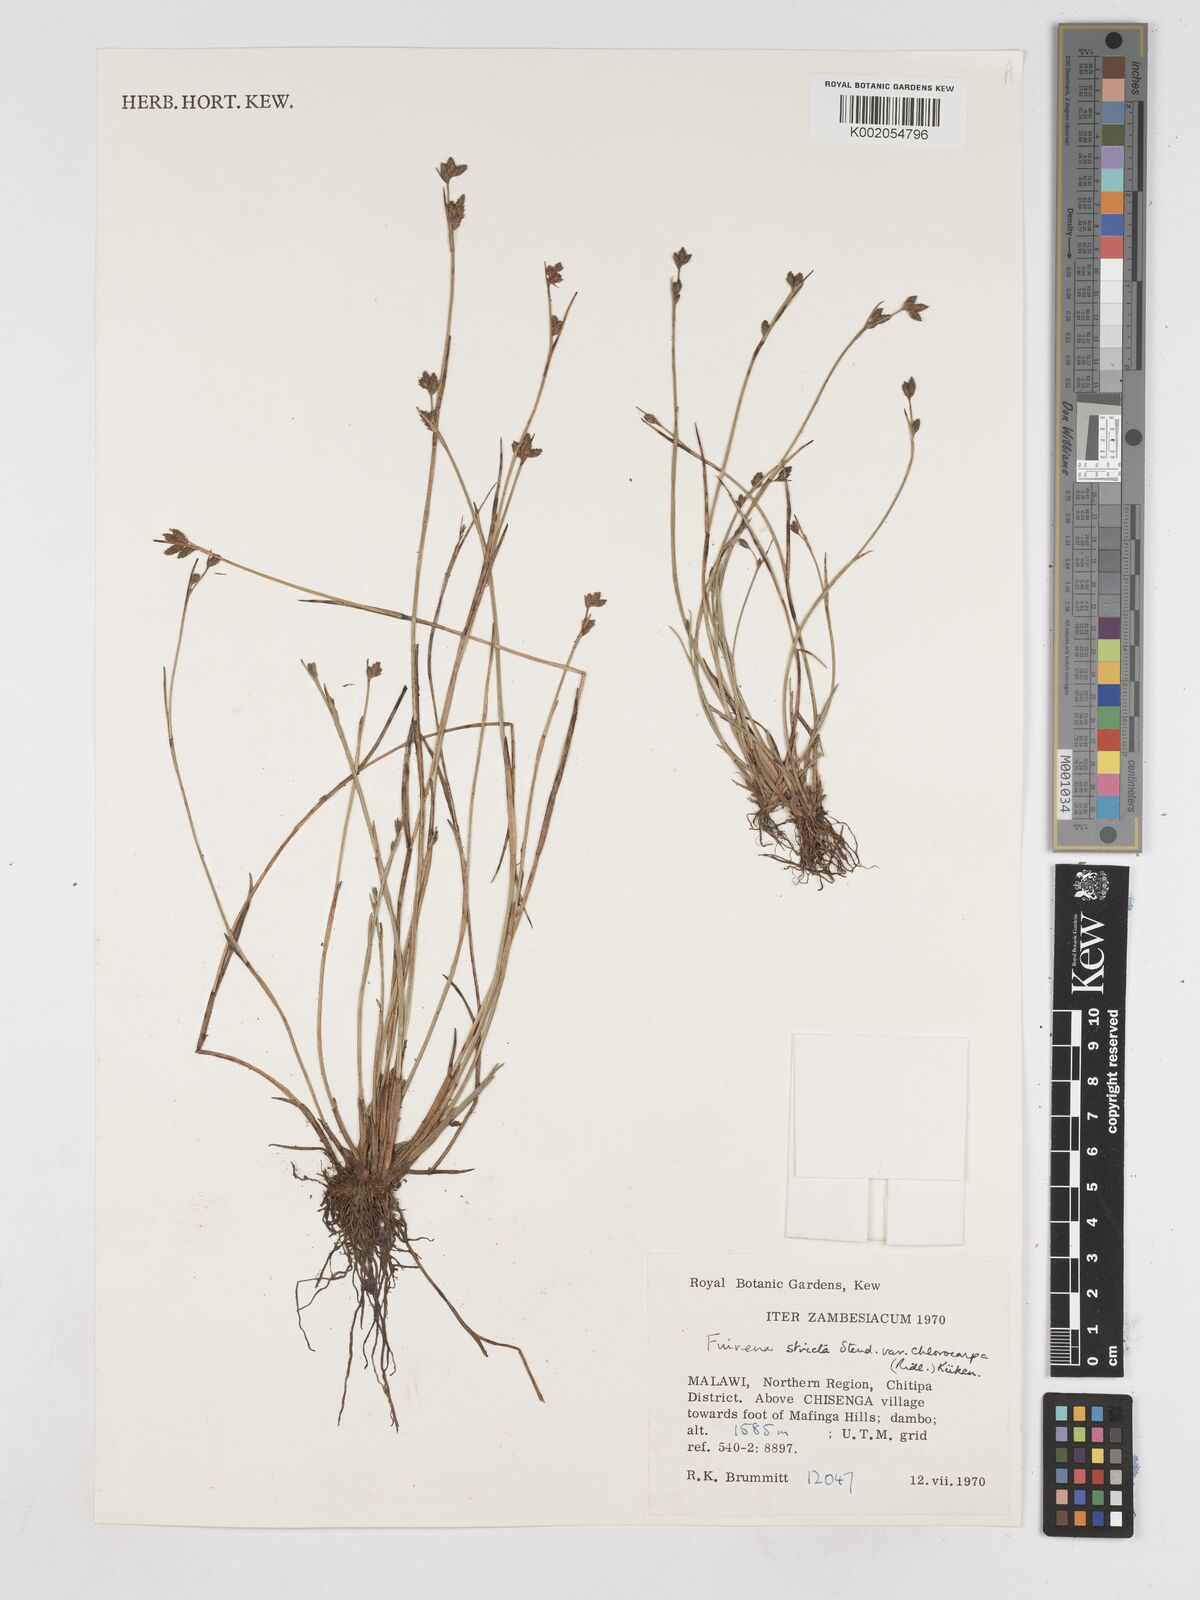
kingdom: Plantae
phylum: Tracheophyta
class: Liliopsida
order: Poales
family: Cyperaceae
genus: Fuirena
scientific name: Fuirena stricta
